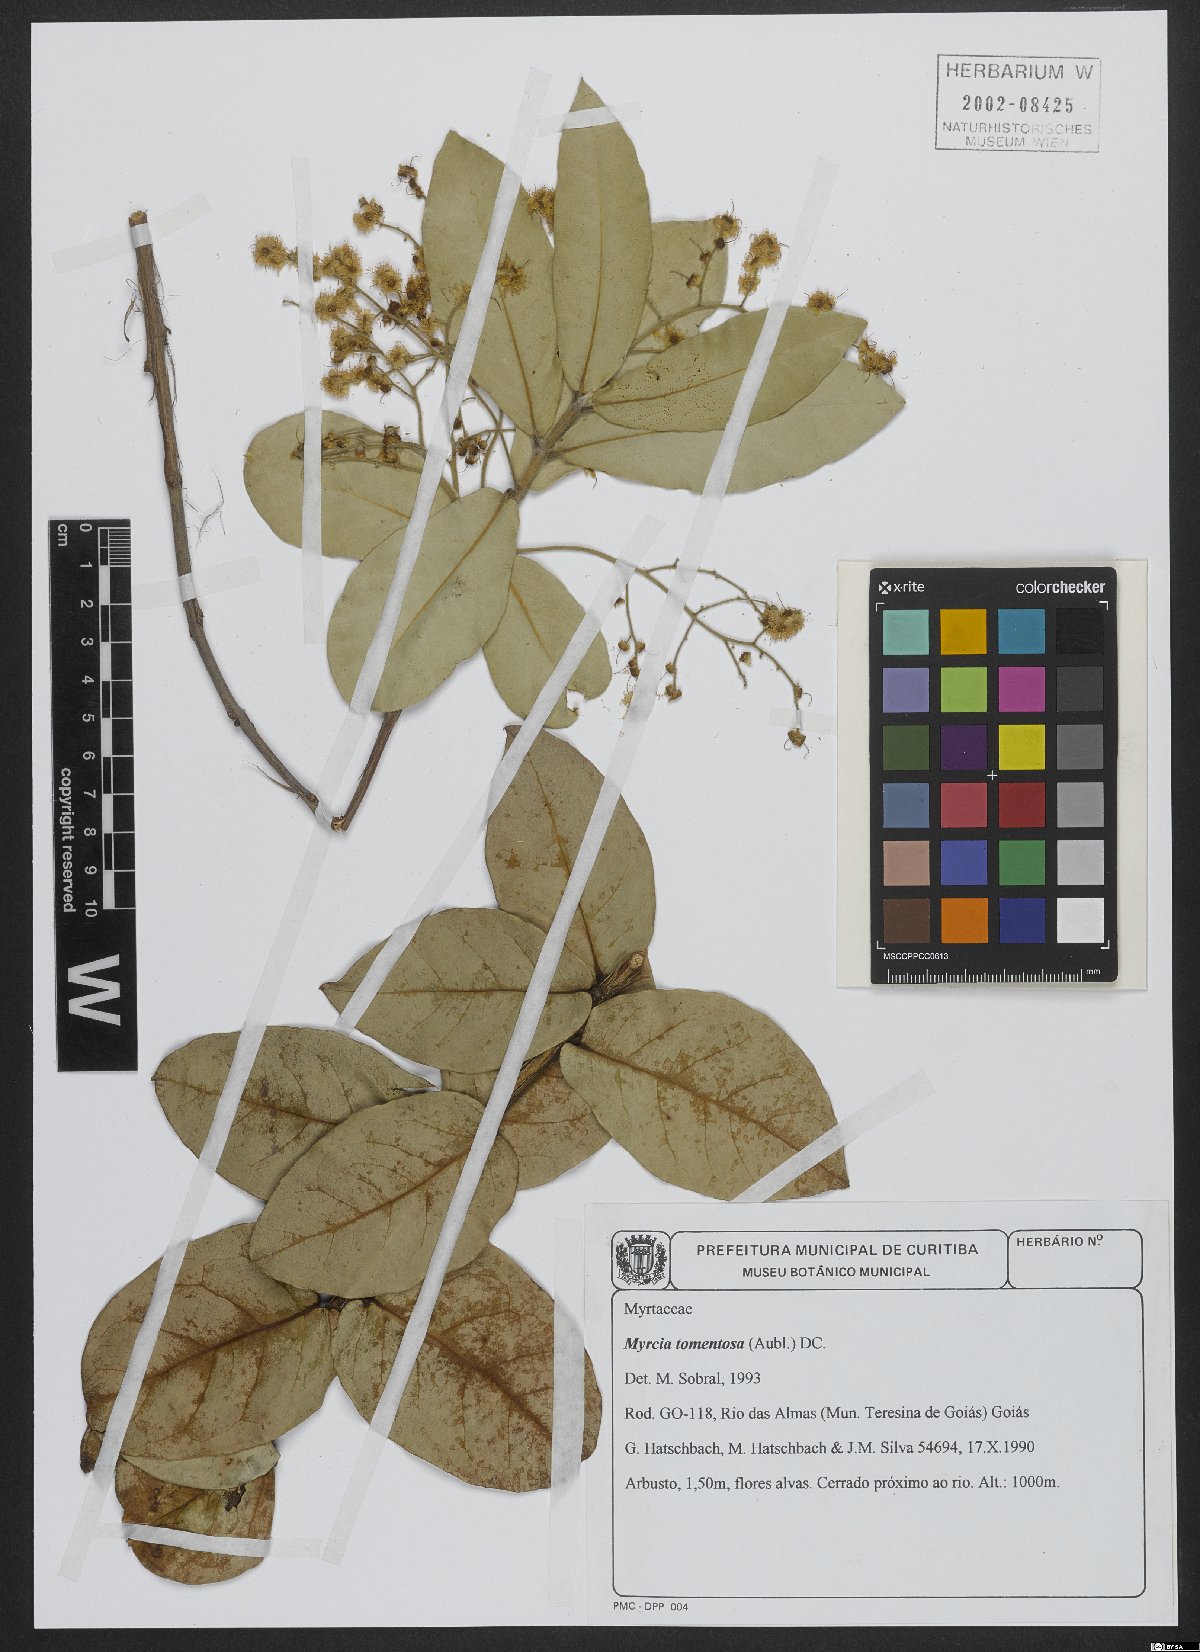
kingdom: Plantae
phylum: Tracheophyta
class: Magnoliopsida
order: Myrtales
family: Myrtaceae
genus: Myrcia
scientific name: Myrcia tomentosa
